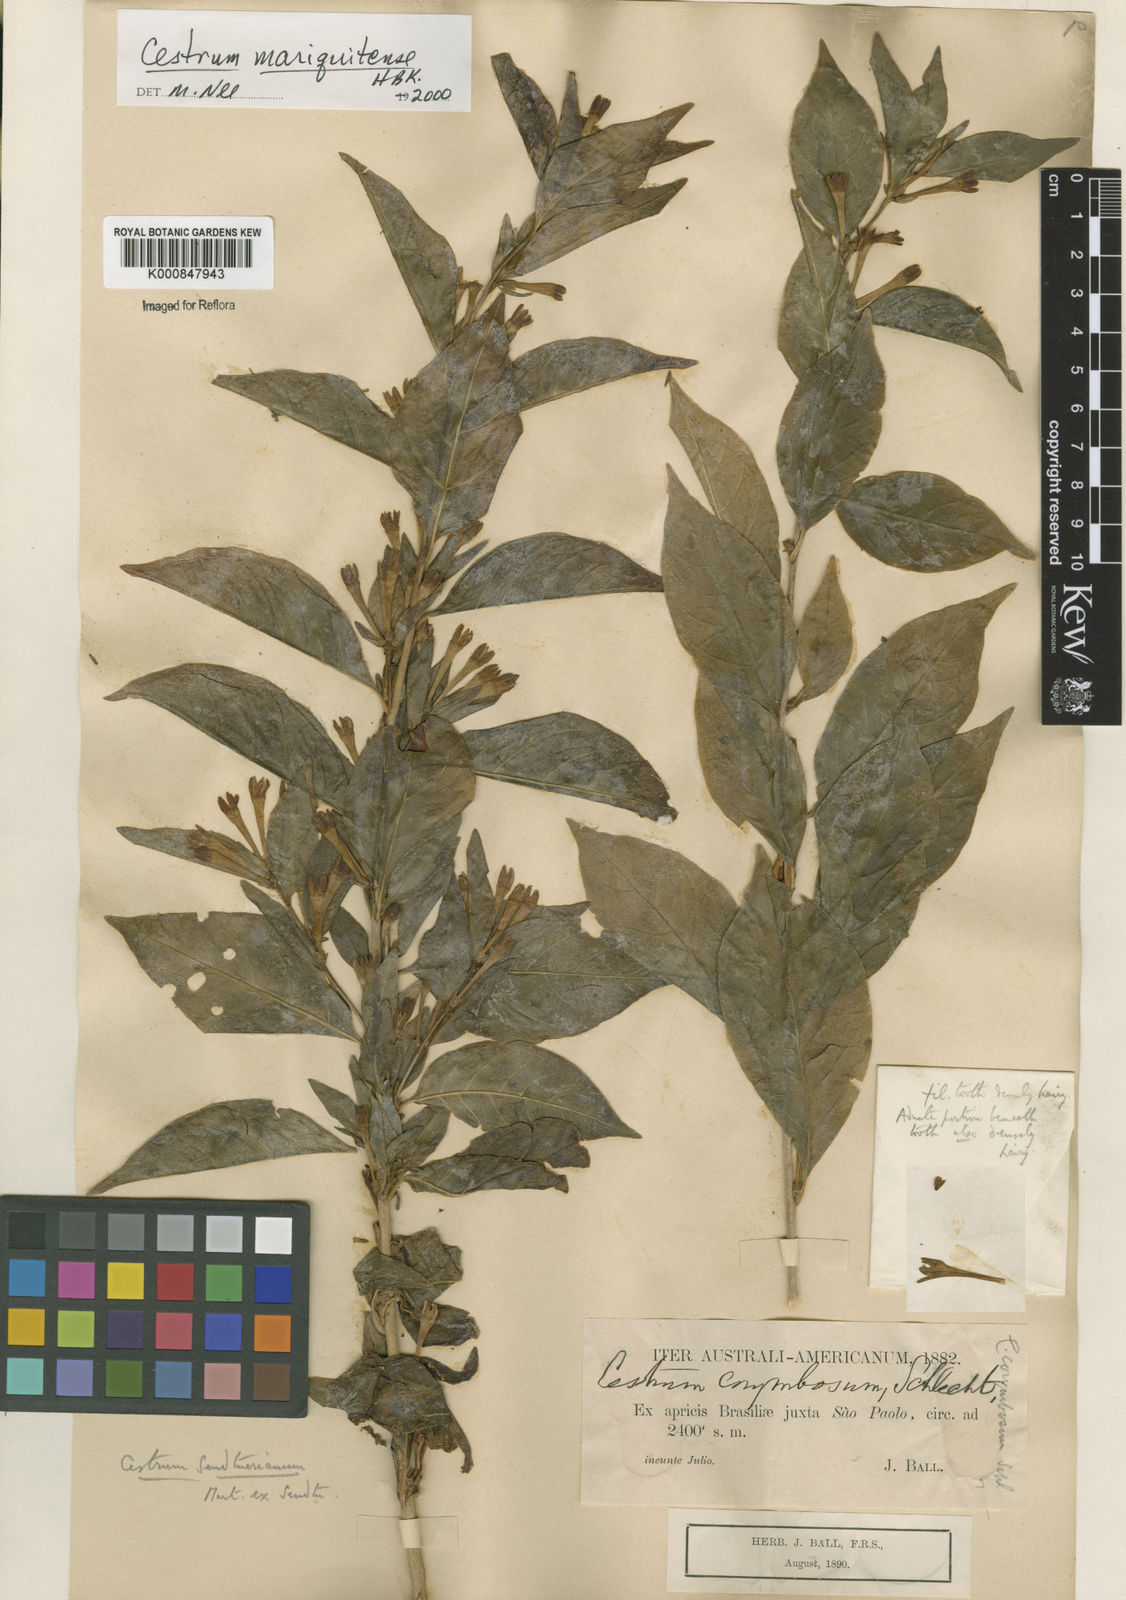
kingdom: Plantae
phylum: Tracheophyta
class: Magnoliopsida
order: Solanales
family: Solanaceae
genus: Cestrum
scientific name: Cestrum mariquitense
